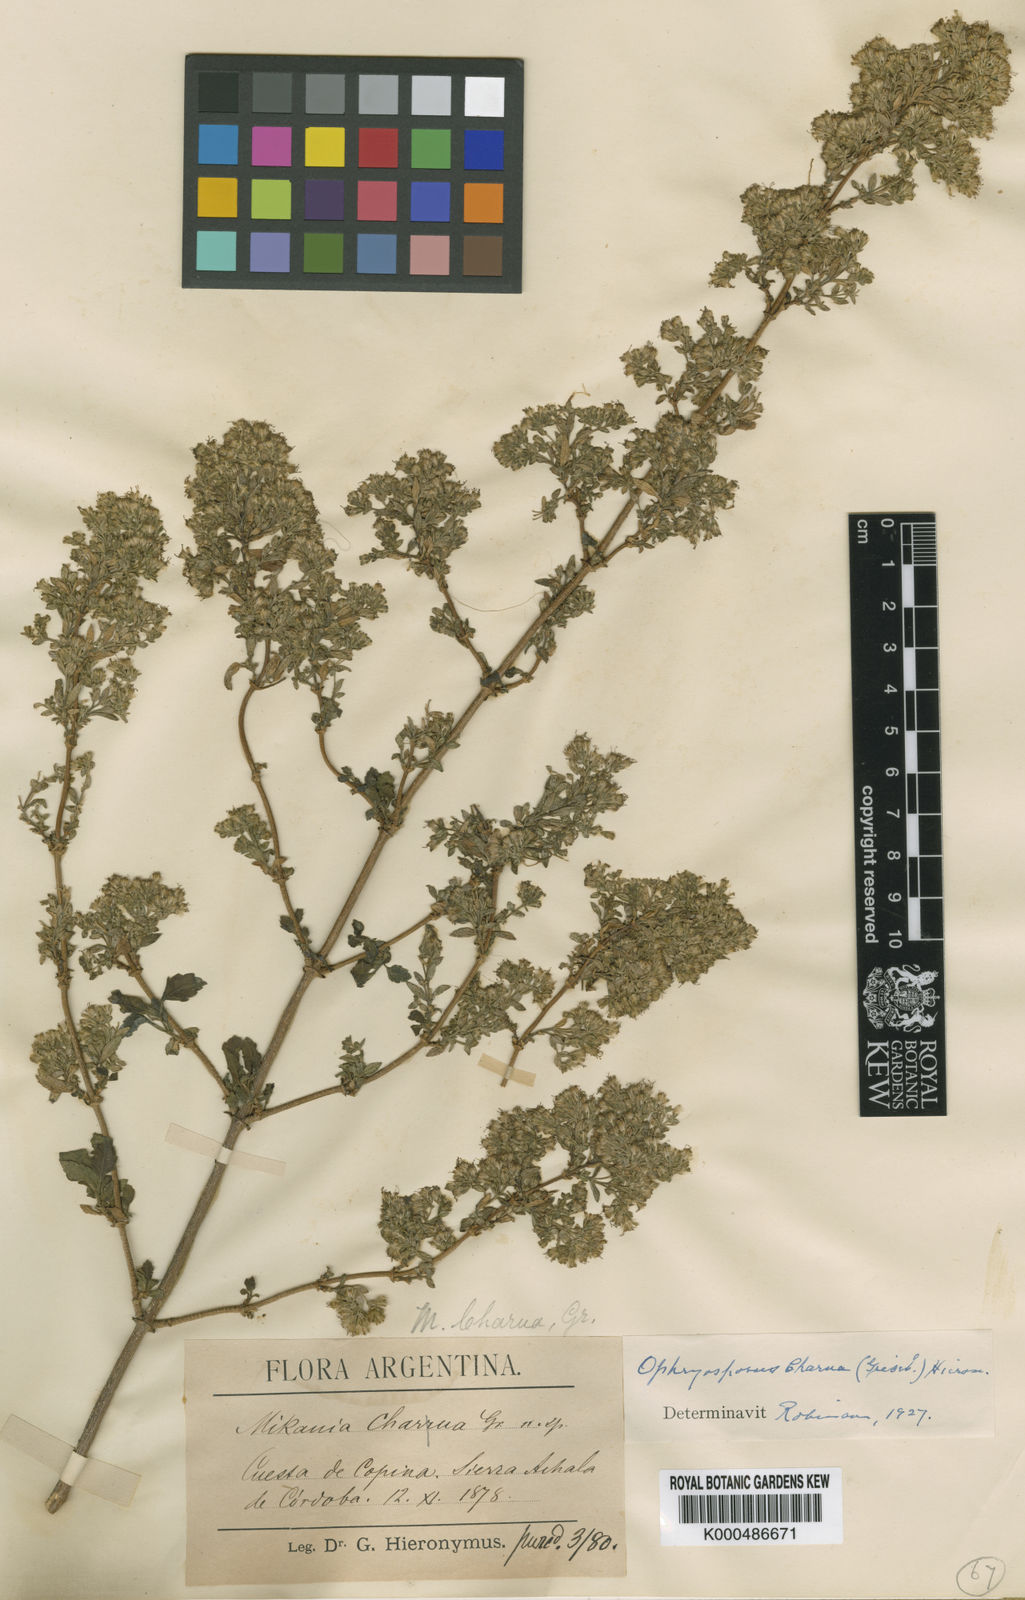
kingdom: Plantae
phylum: Tracheophyta
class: Magnoliopsida
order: Asterales
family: Asteraceae
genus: Ophryosporus
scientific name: Ophryosporus charua
